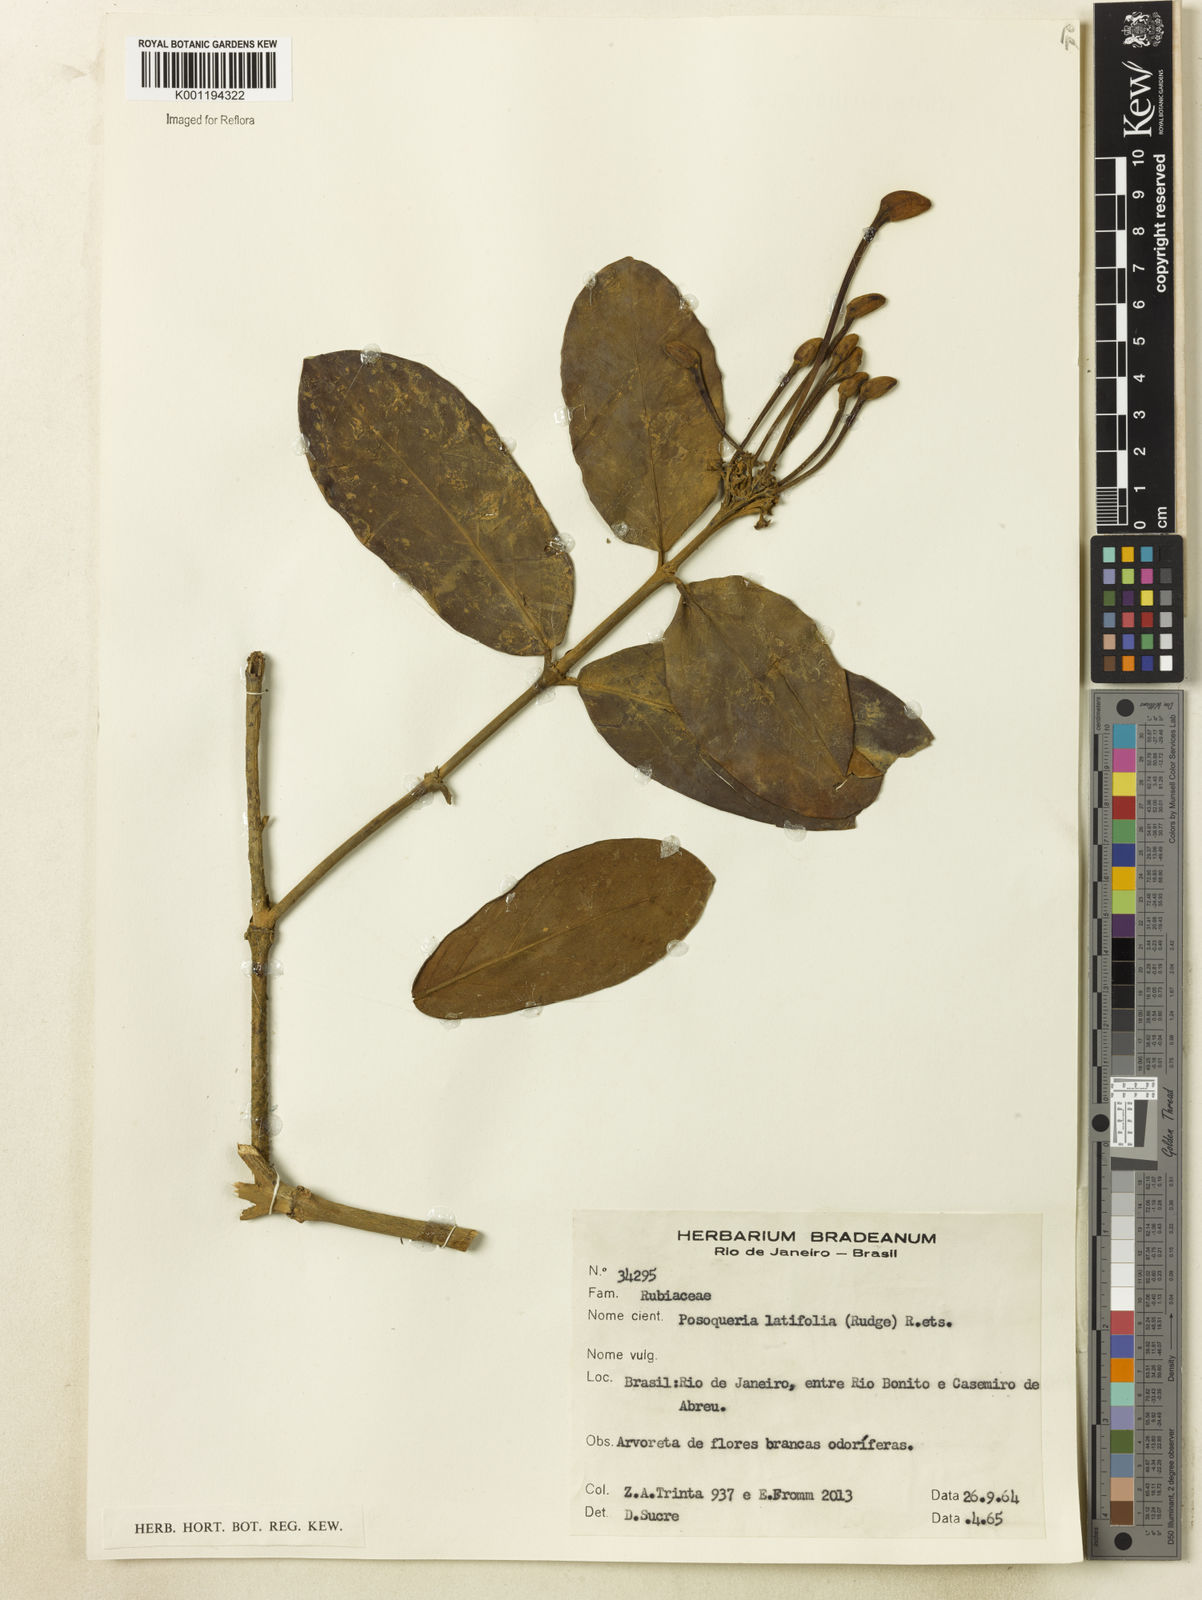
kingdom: Plantae
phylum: Tracheophyta
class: Magnoliopsida
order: Gentianales
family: Rubiaceae
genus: Posoqueria
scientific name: Posoqueria latifolia
